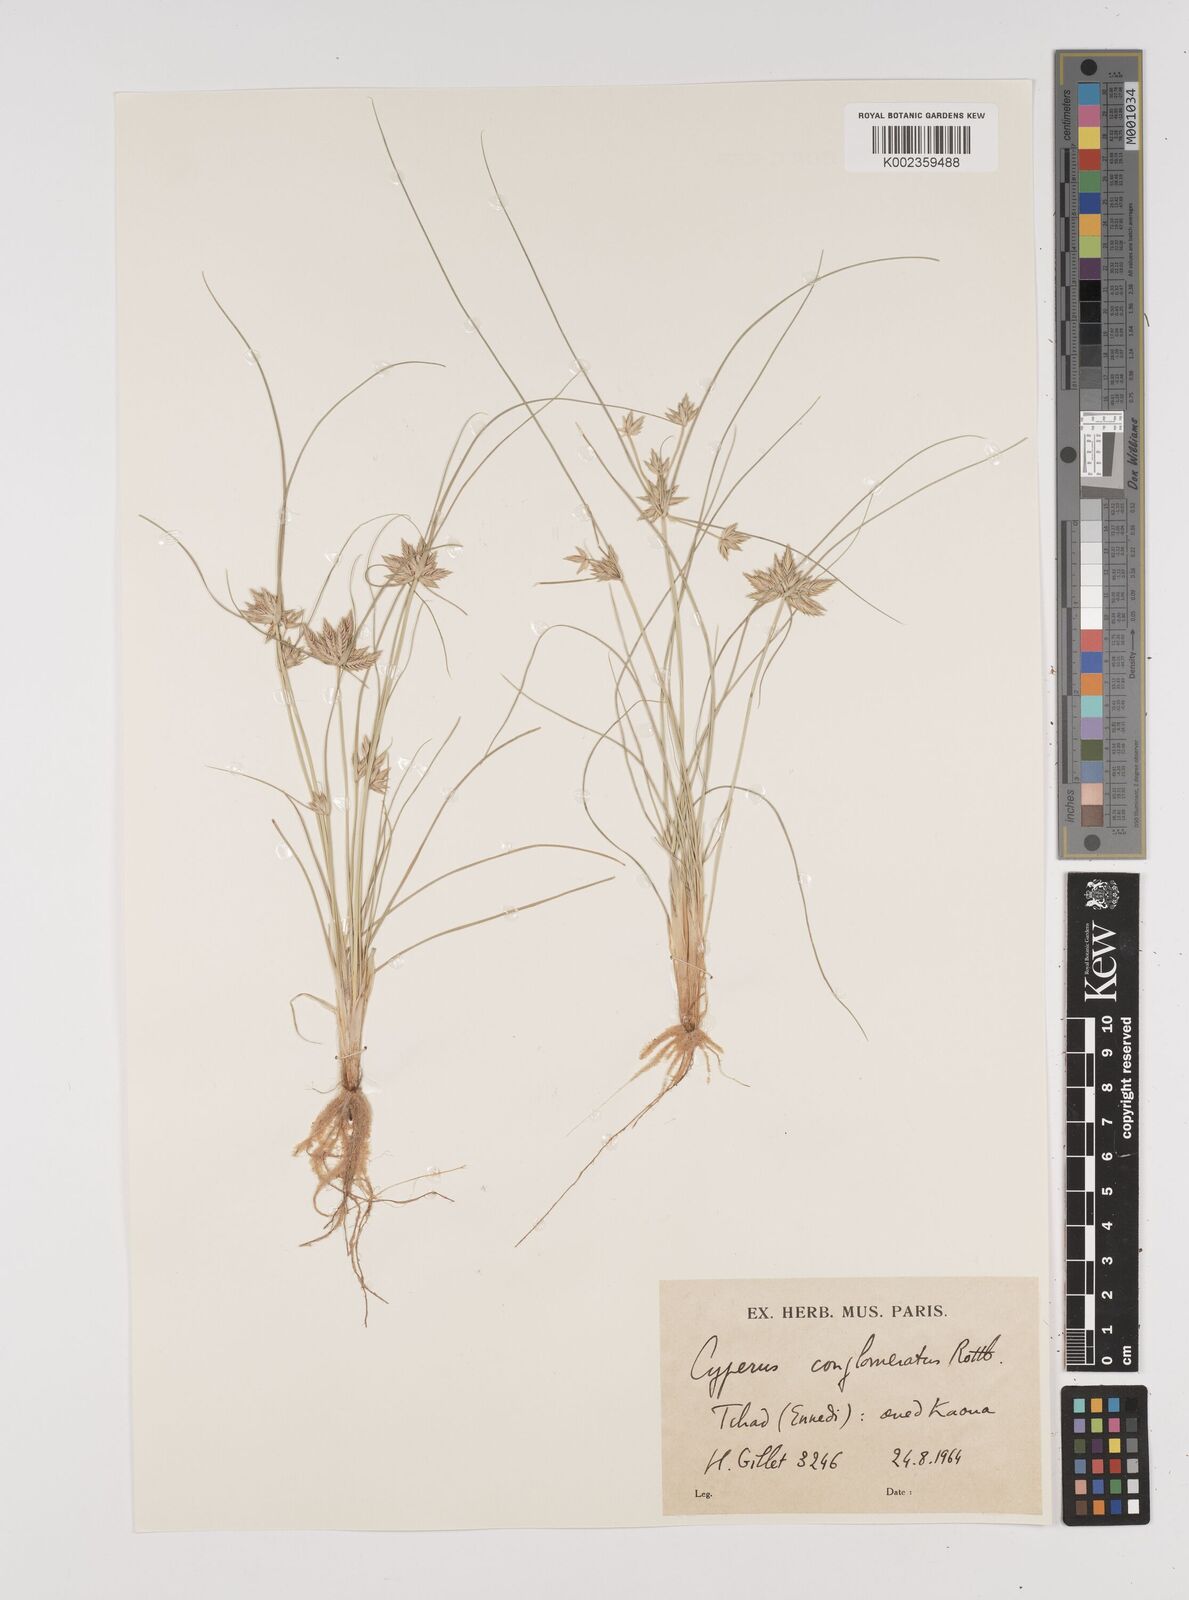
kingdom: Plantae
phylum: Tracheophyta
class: Liliopsida
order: Poales
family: Cyperaceae
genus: Cyperus
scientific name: Cyperus conglomeratus
